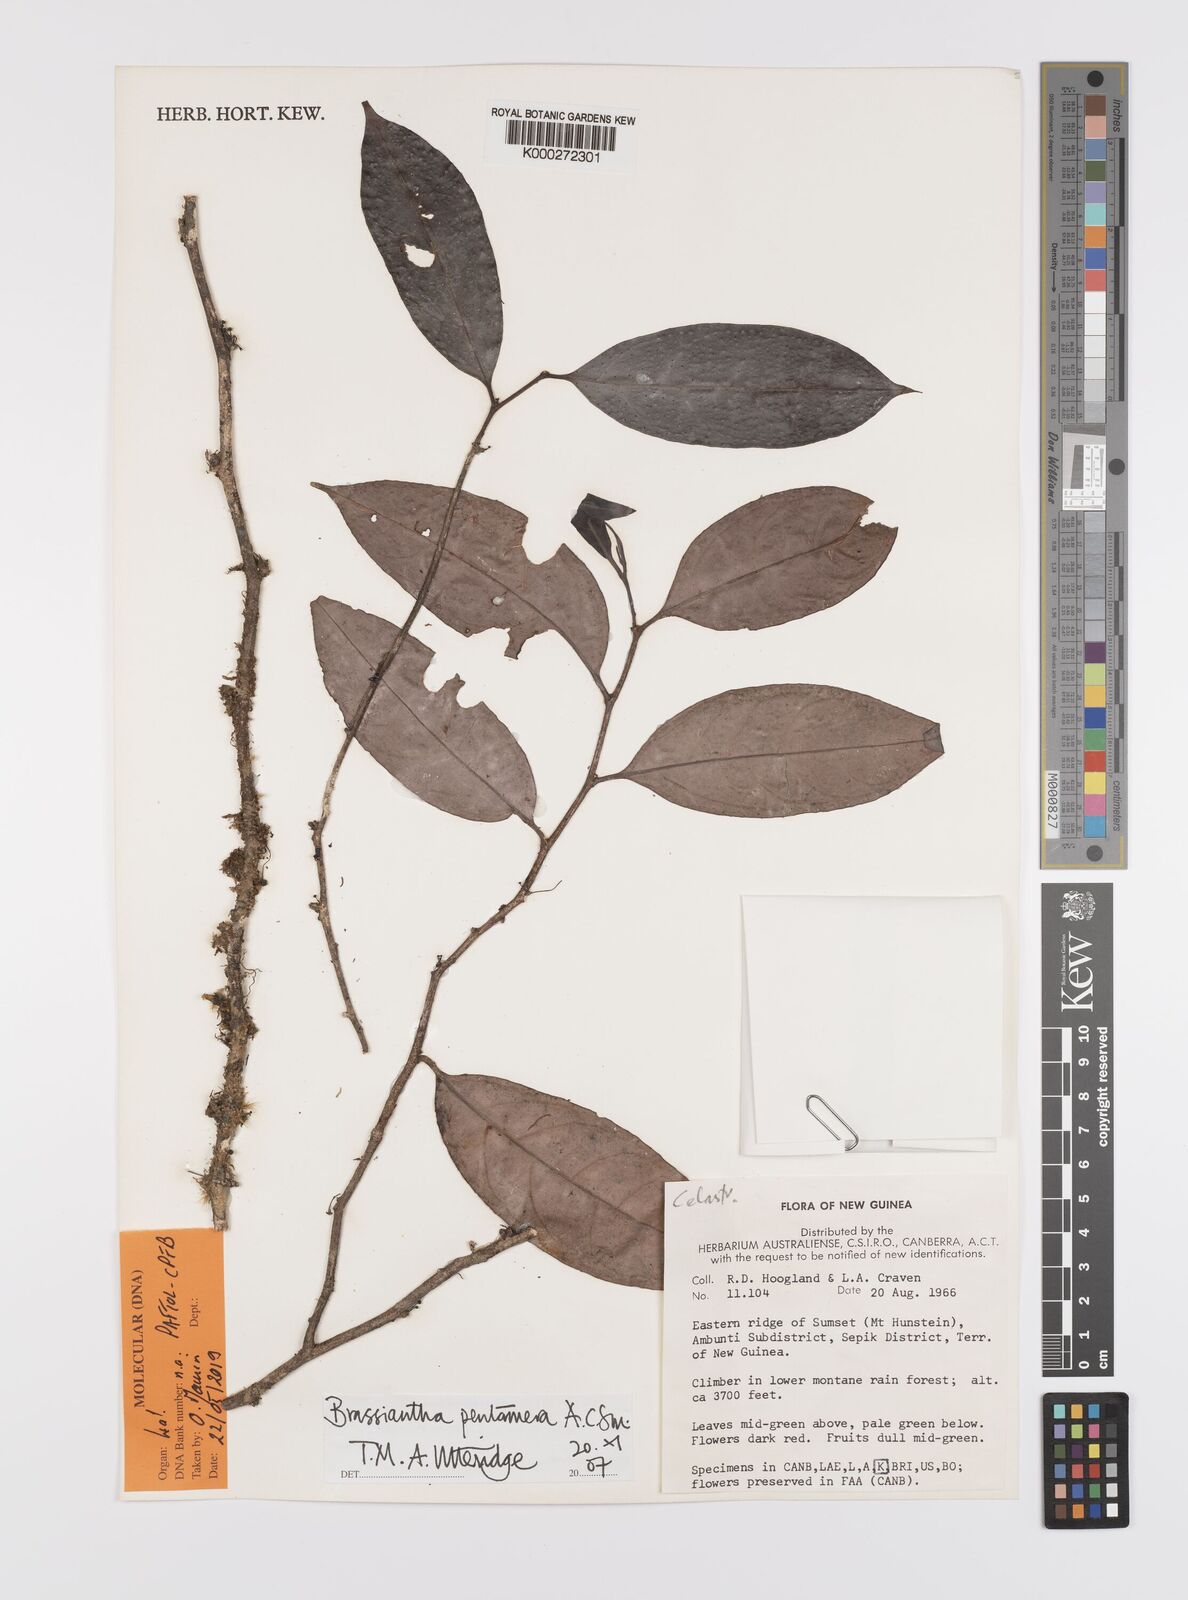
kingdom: Plantae
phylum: Tracheophyta
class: Magnoliopsida
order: Celastrales
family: Celastraceae
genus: Brassiantha
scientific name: Brassiantha pentamera
